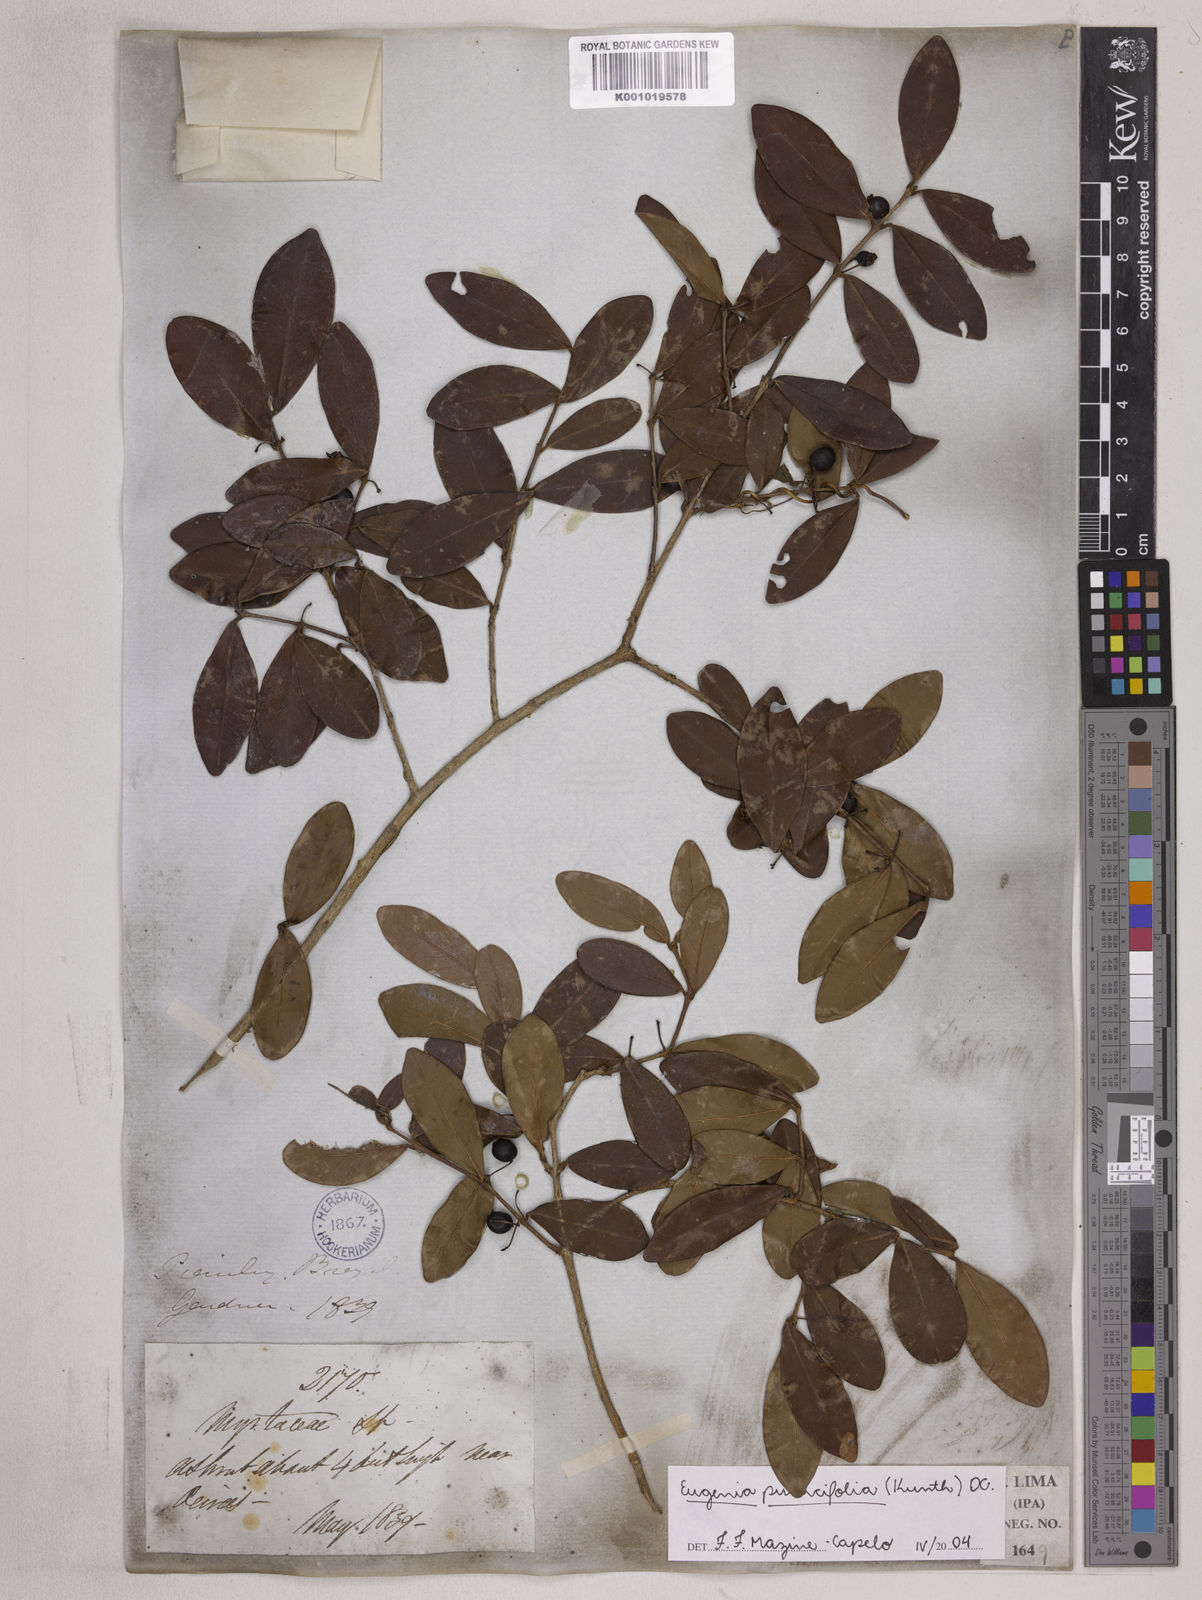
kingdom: Plantae
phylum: Tracheophyta
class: Magnoliopsida
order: Myrtales
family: Myrtaceae
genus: Eugenia
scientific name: Eugenia punicifolia
